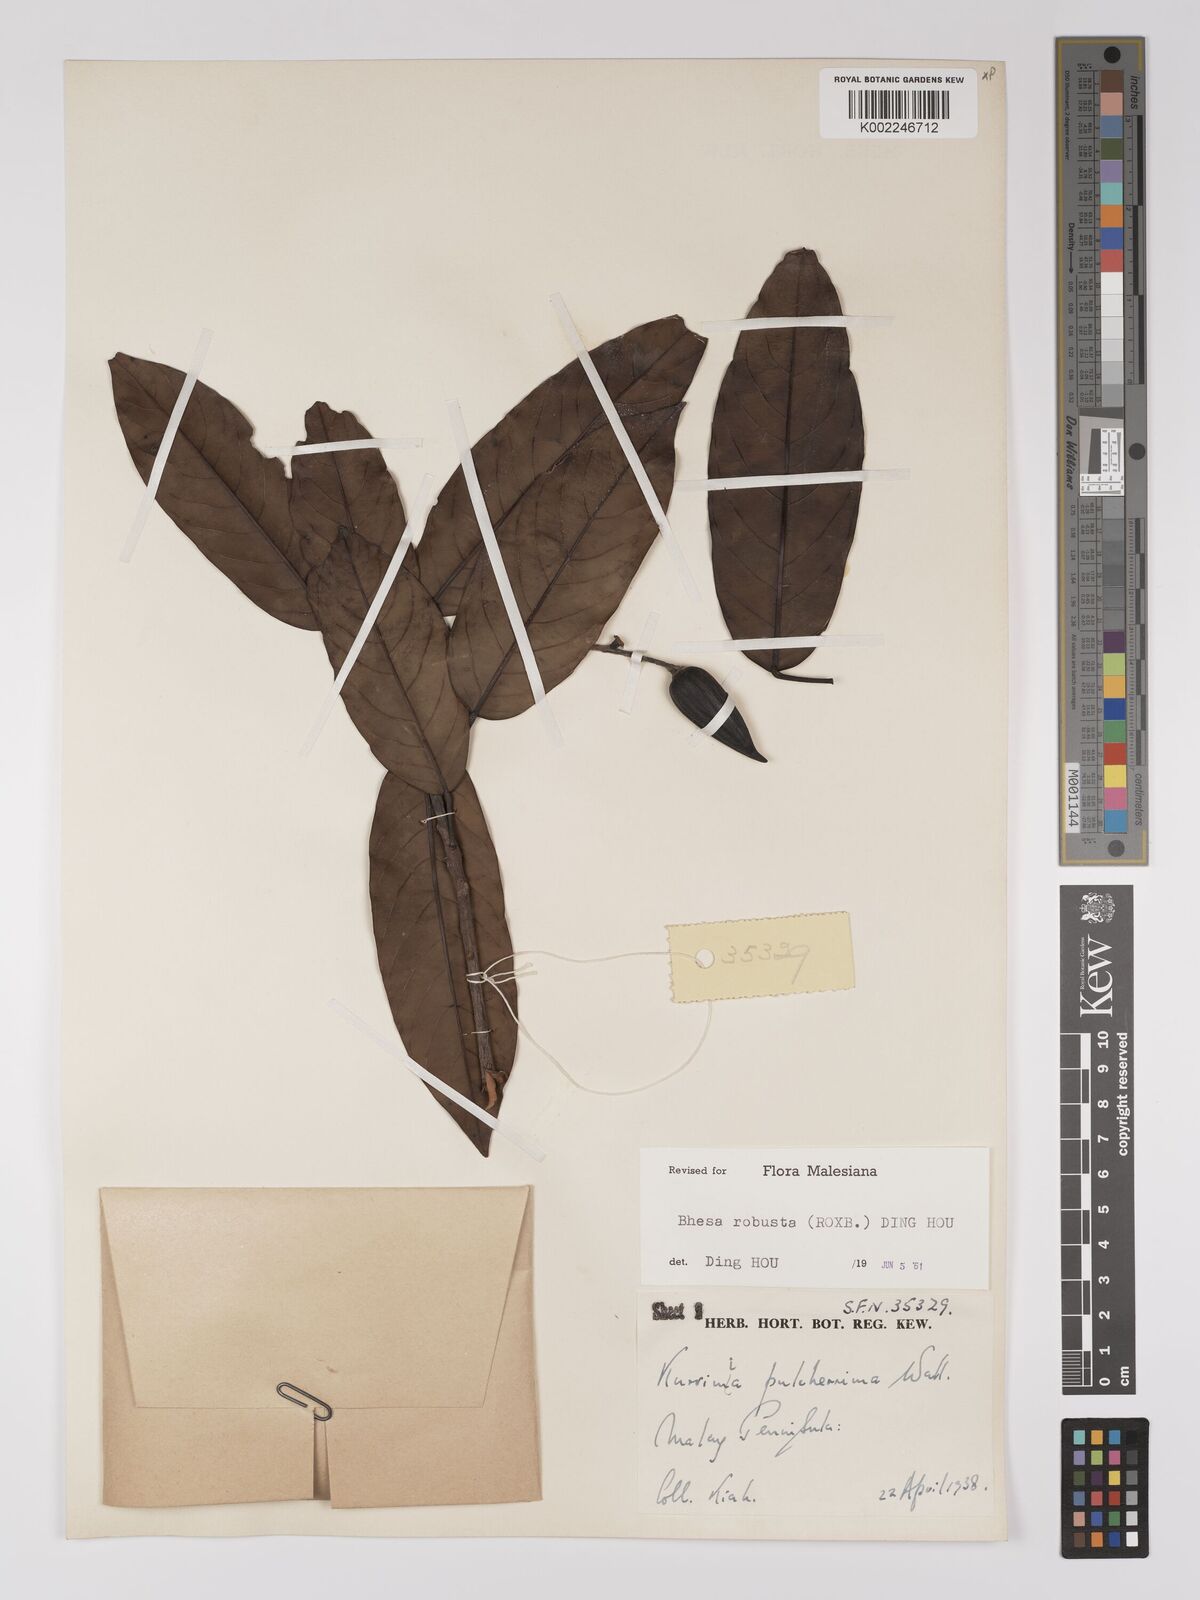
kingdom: Plantae
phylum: Tracheophyta
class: Magnoliopsida
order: Malpighiales
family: Centroplacaceae
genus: Bhesa
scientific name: Bhesa robusta
